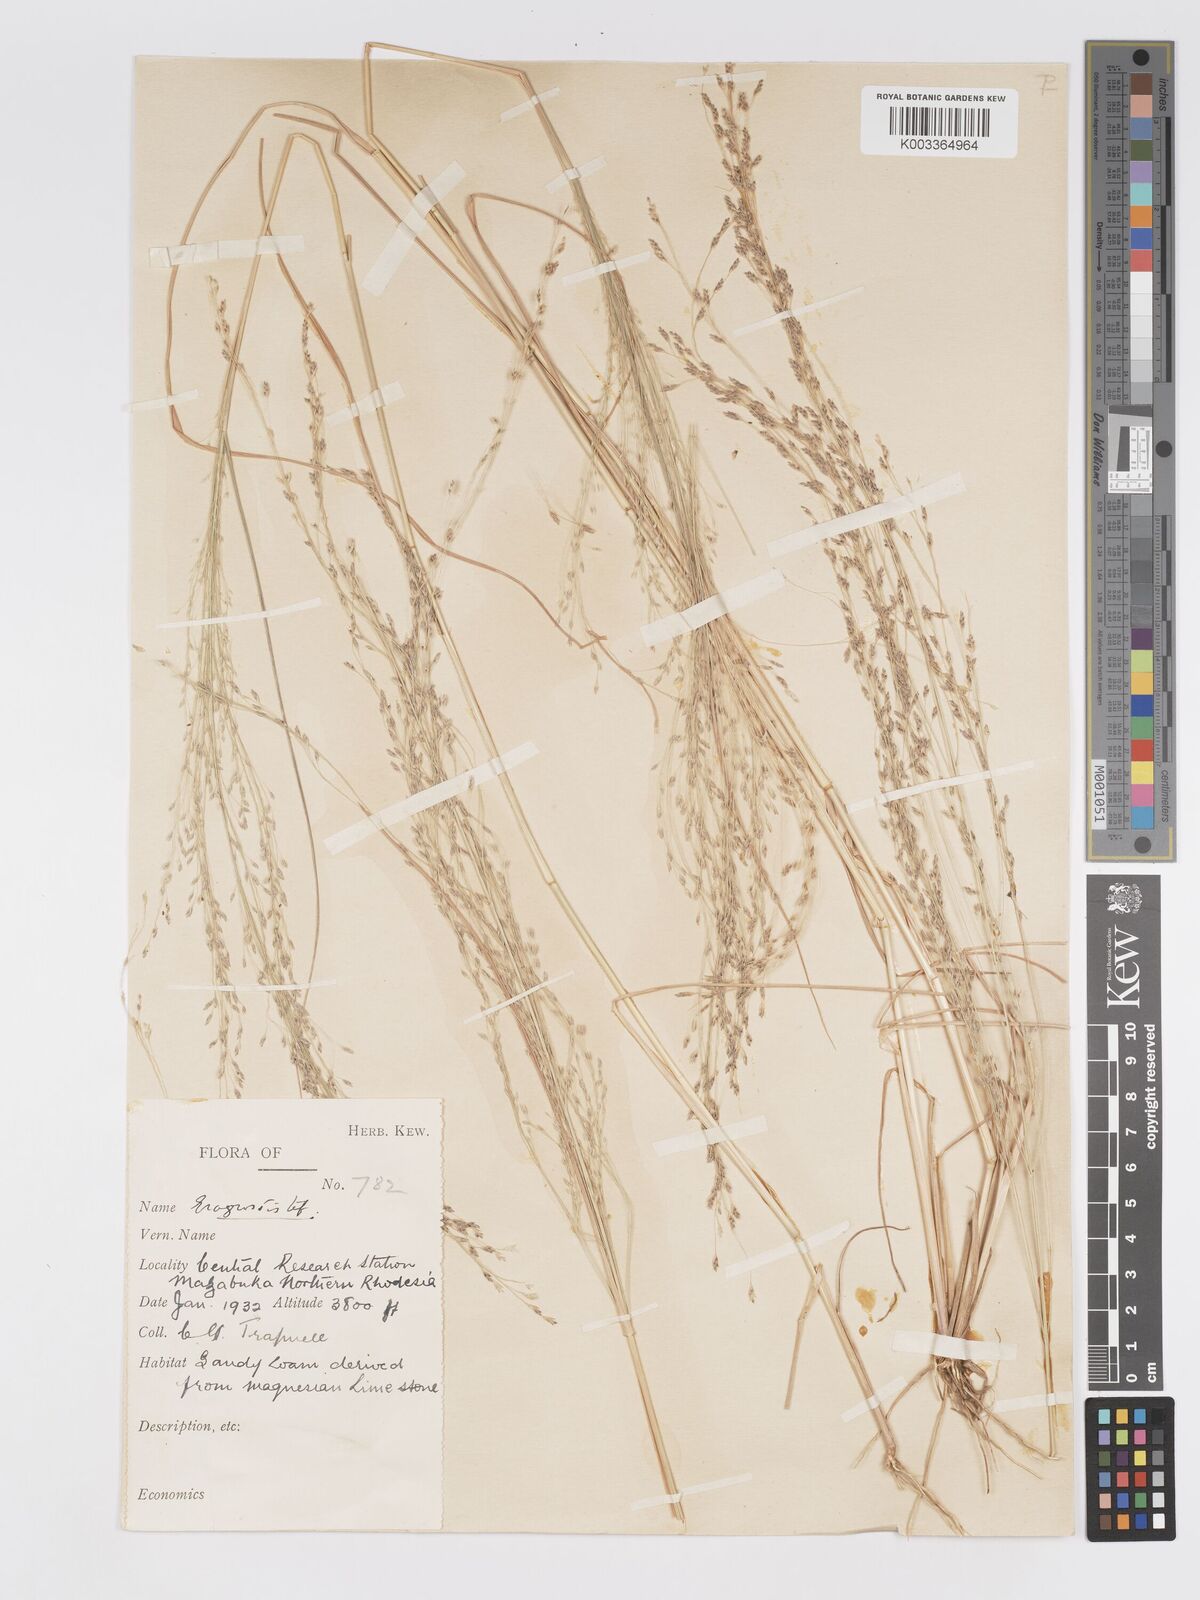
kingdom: Plantae
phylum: Tracheophyta
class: Liliopsida
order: Poales
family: Poaceae
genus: Eragrostis
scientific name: Eragrostis tef
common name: Teff
